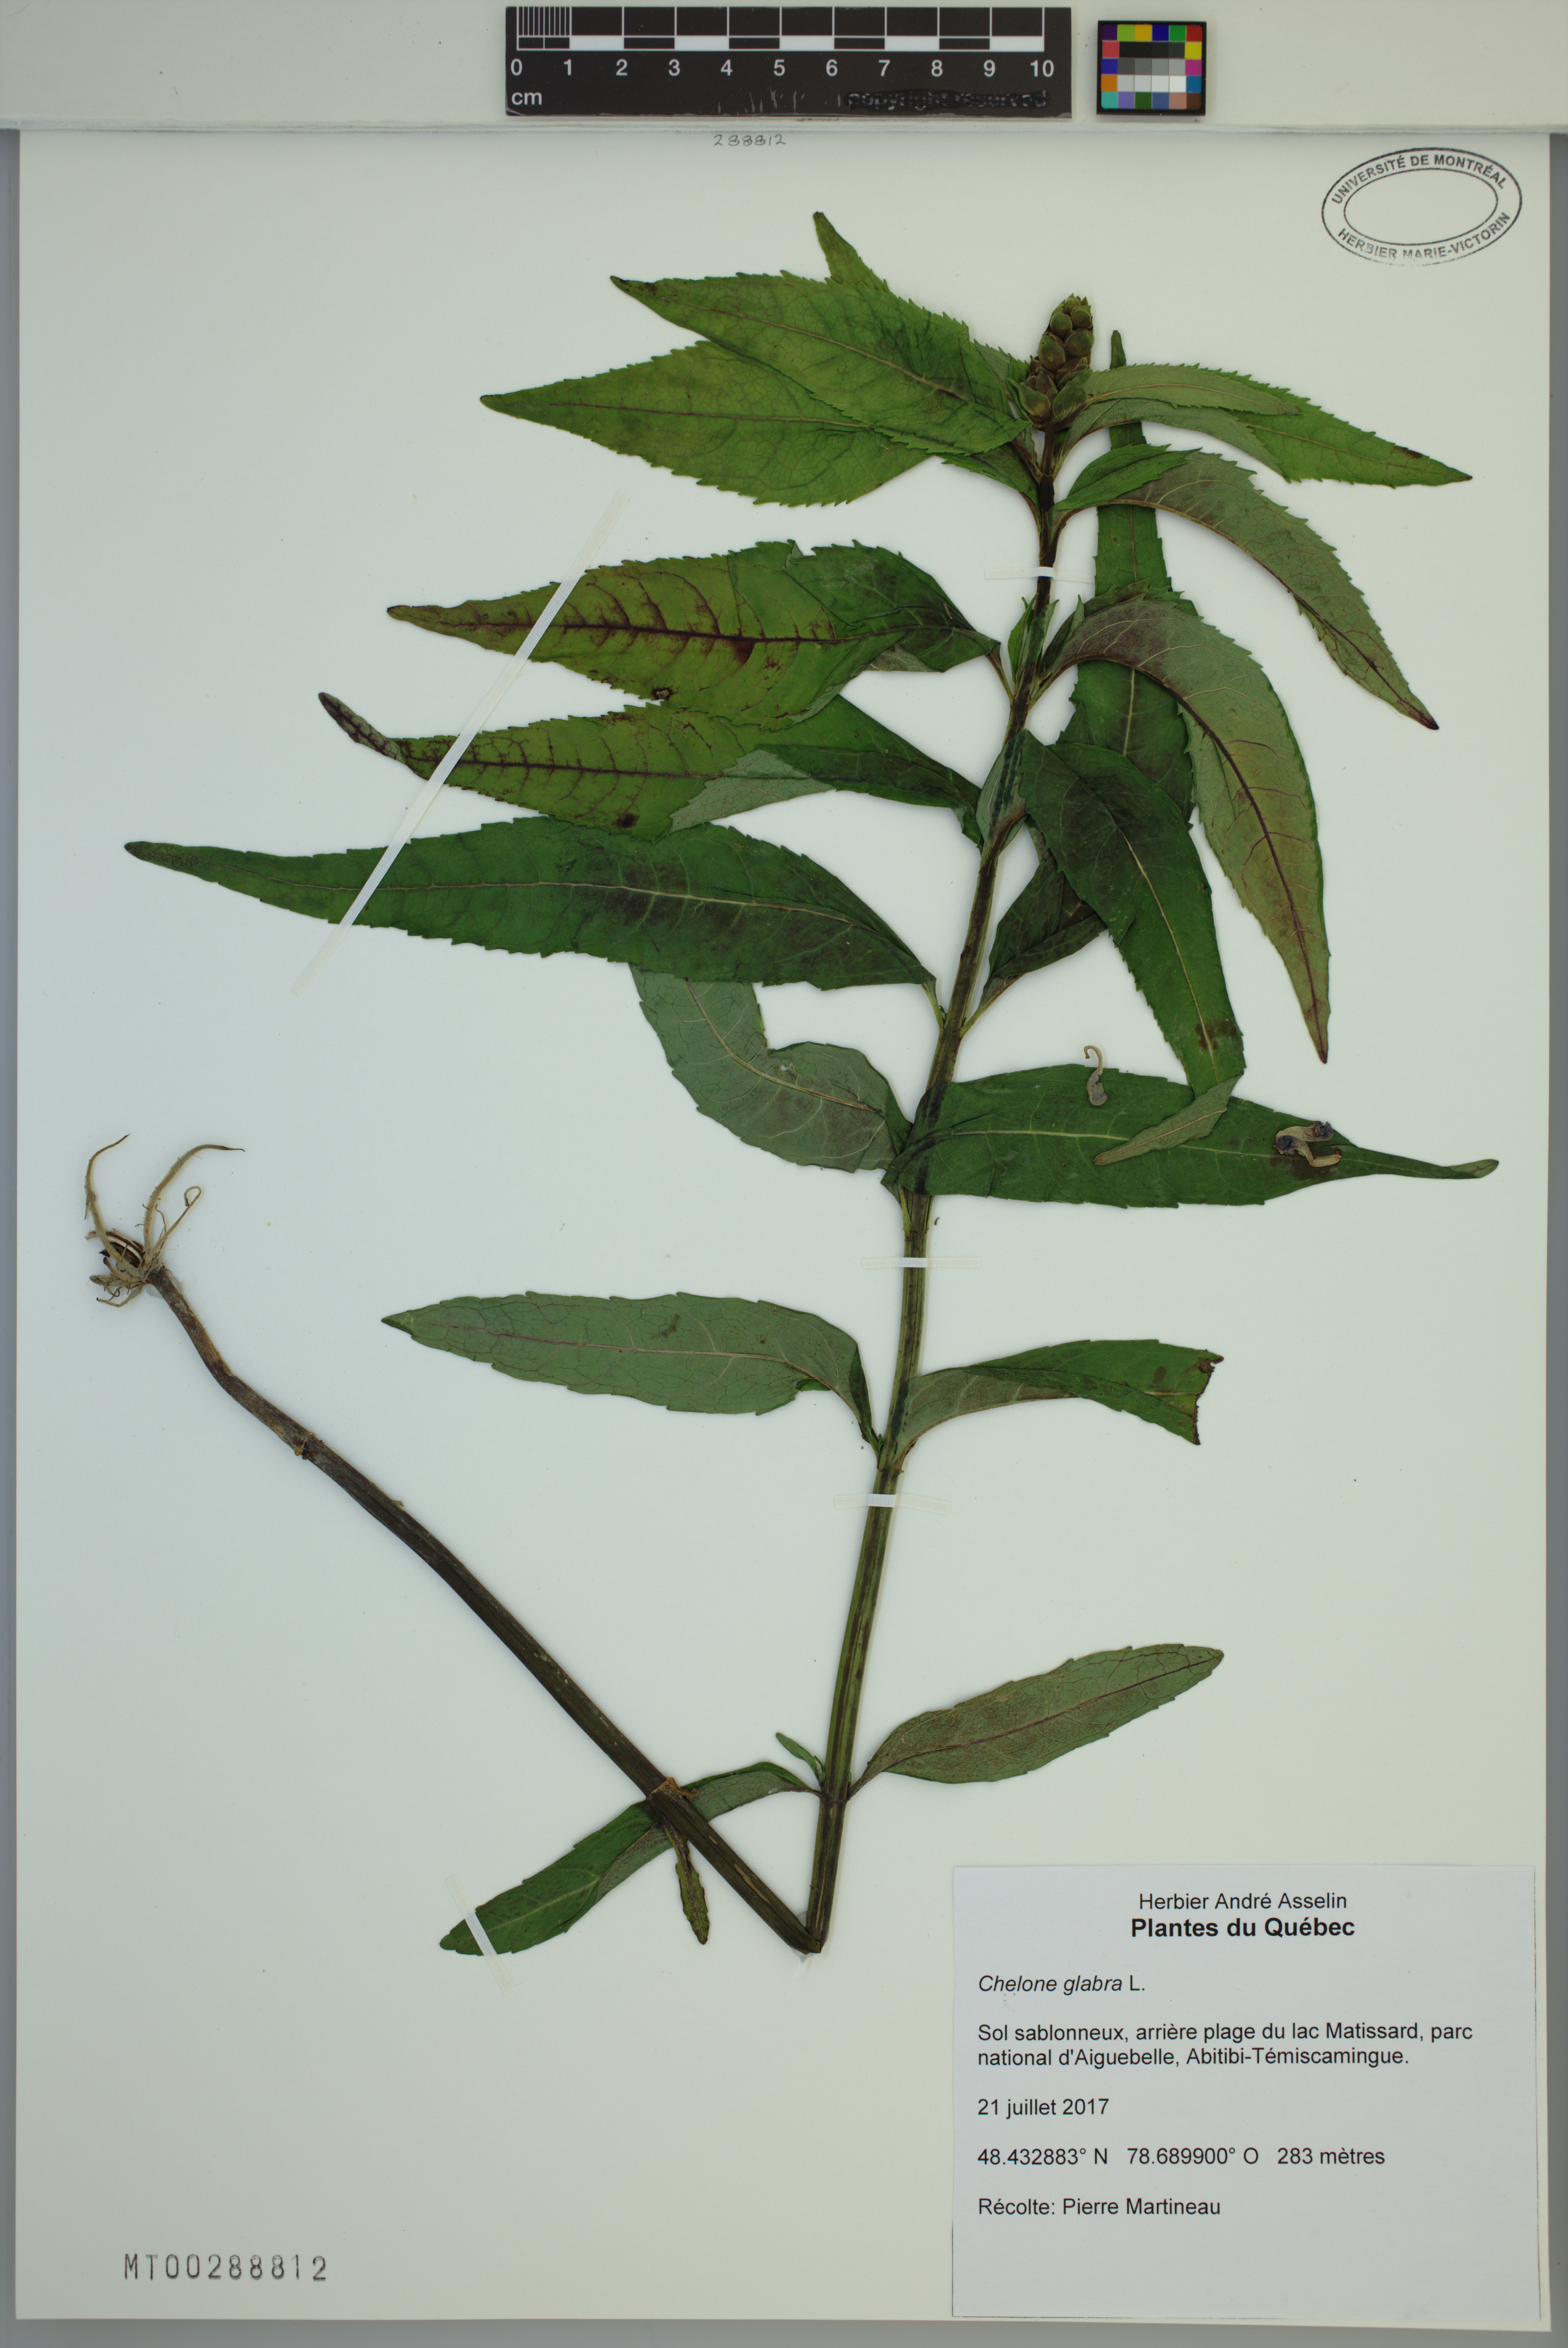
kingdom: Plantae
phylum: Tracheophyta
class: Magnoliopsida
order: Lamiales
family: Plantaginaceae
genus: Chelone
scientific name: Chelone glabra
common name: Snakehead
